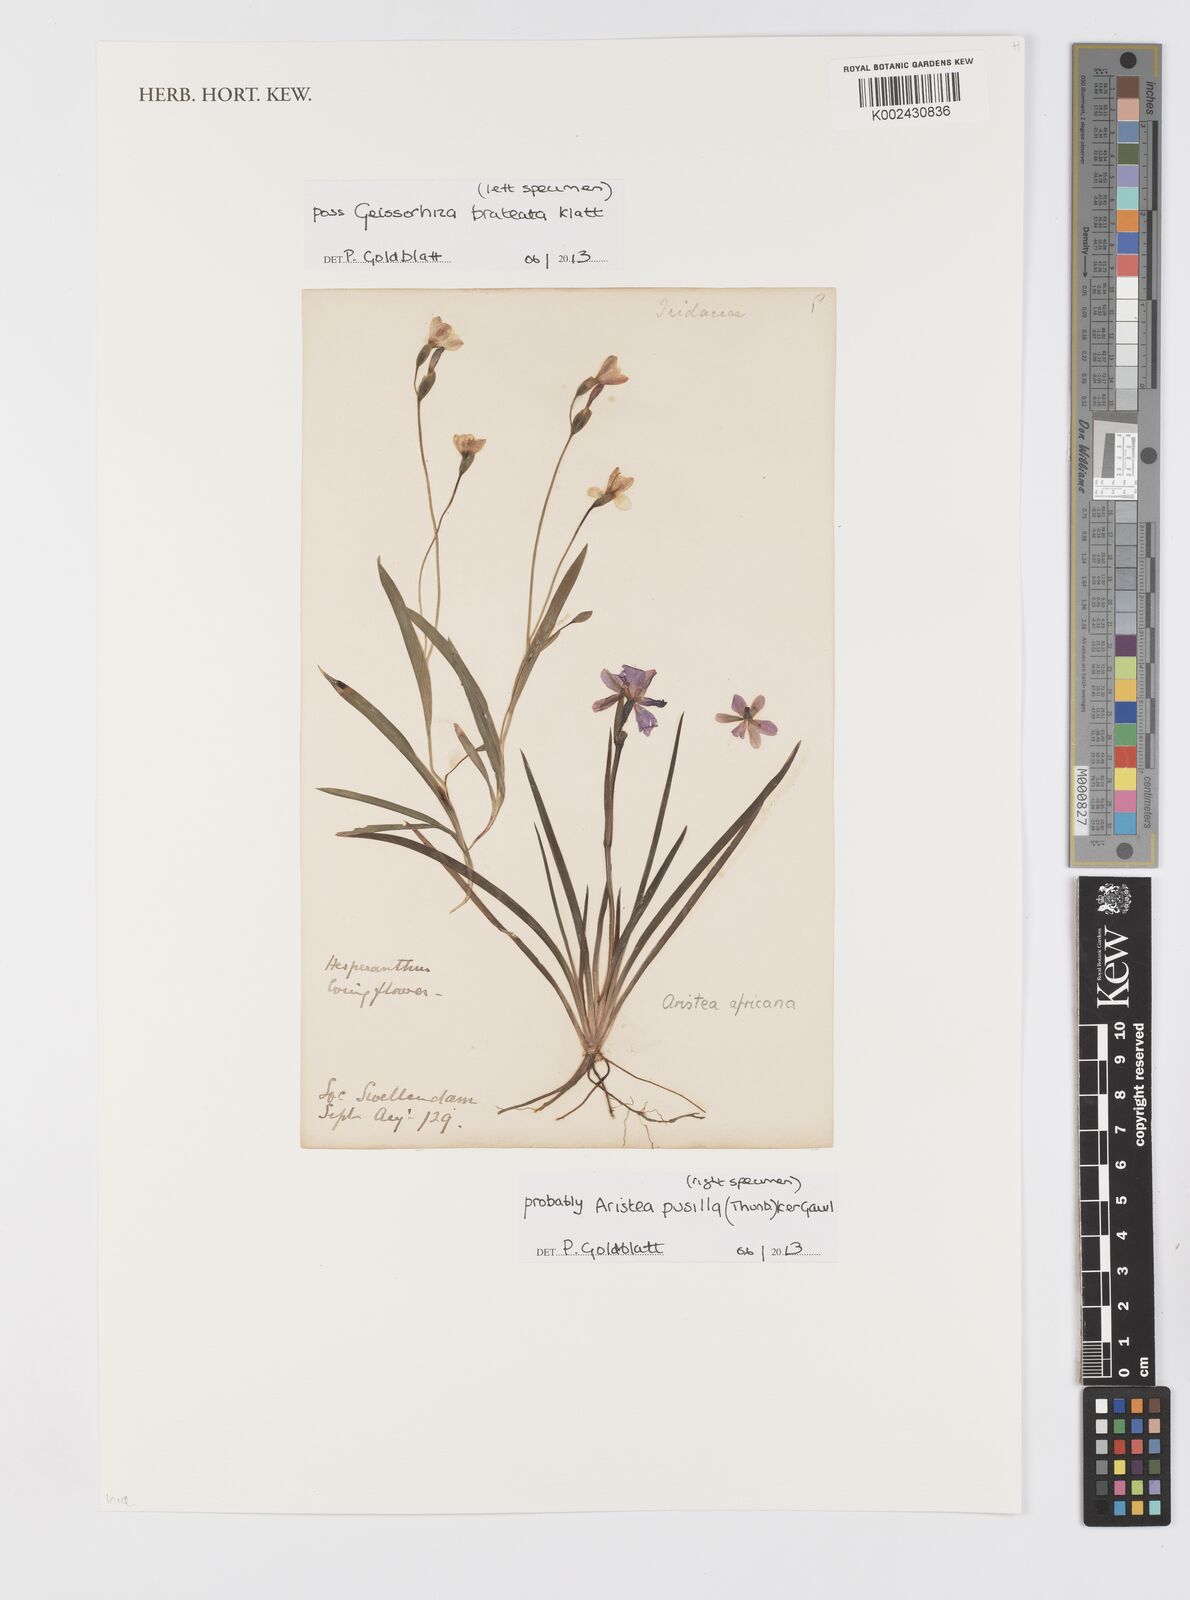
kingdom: Plantae
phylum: Tracheophyta
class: Liliopsida
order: Asparagales
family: Iridaceae
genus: Aristea
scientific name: Aristea pusilla
